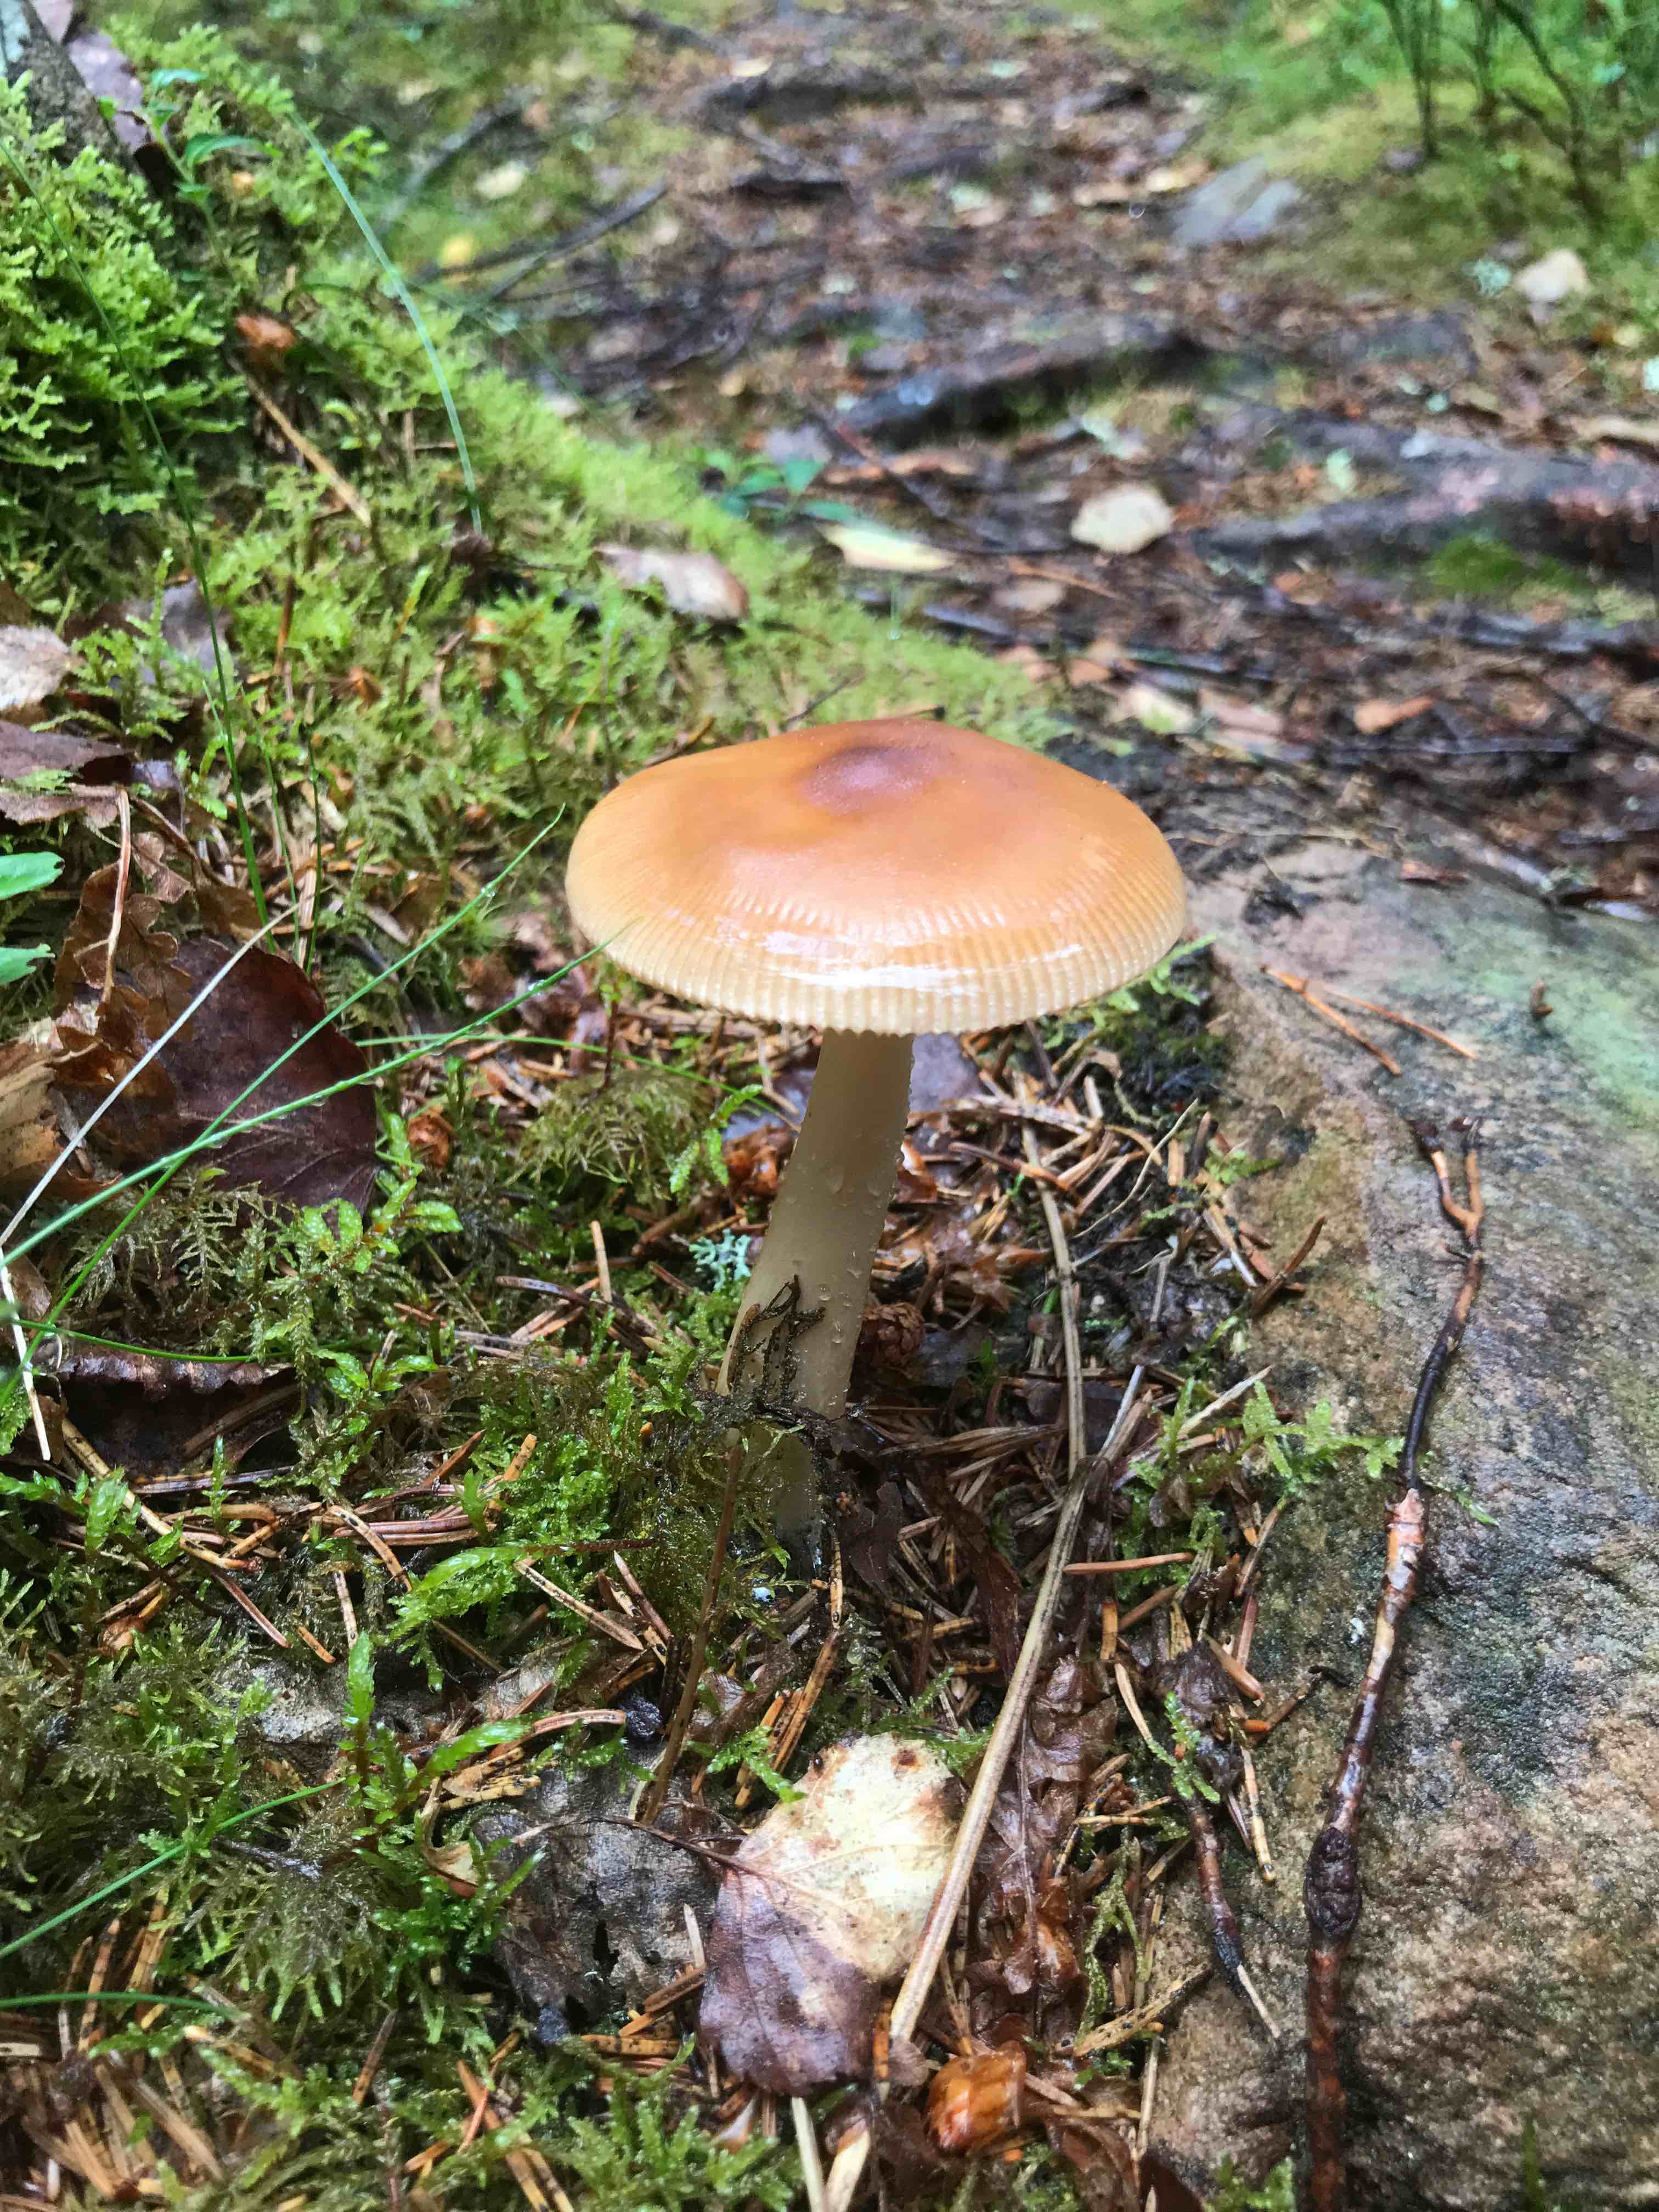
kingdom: Fungi
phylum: Basidiomycota
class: Agaricomycetes
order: Agaricales
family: Amanitaceae
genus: Amanita
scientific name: Amanita fulva
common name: brun kam-fluesvamp
